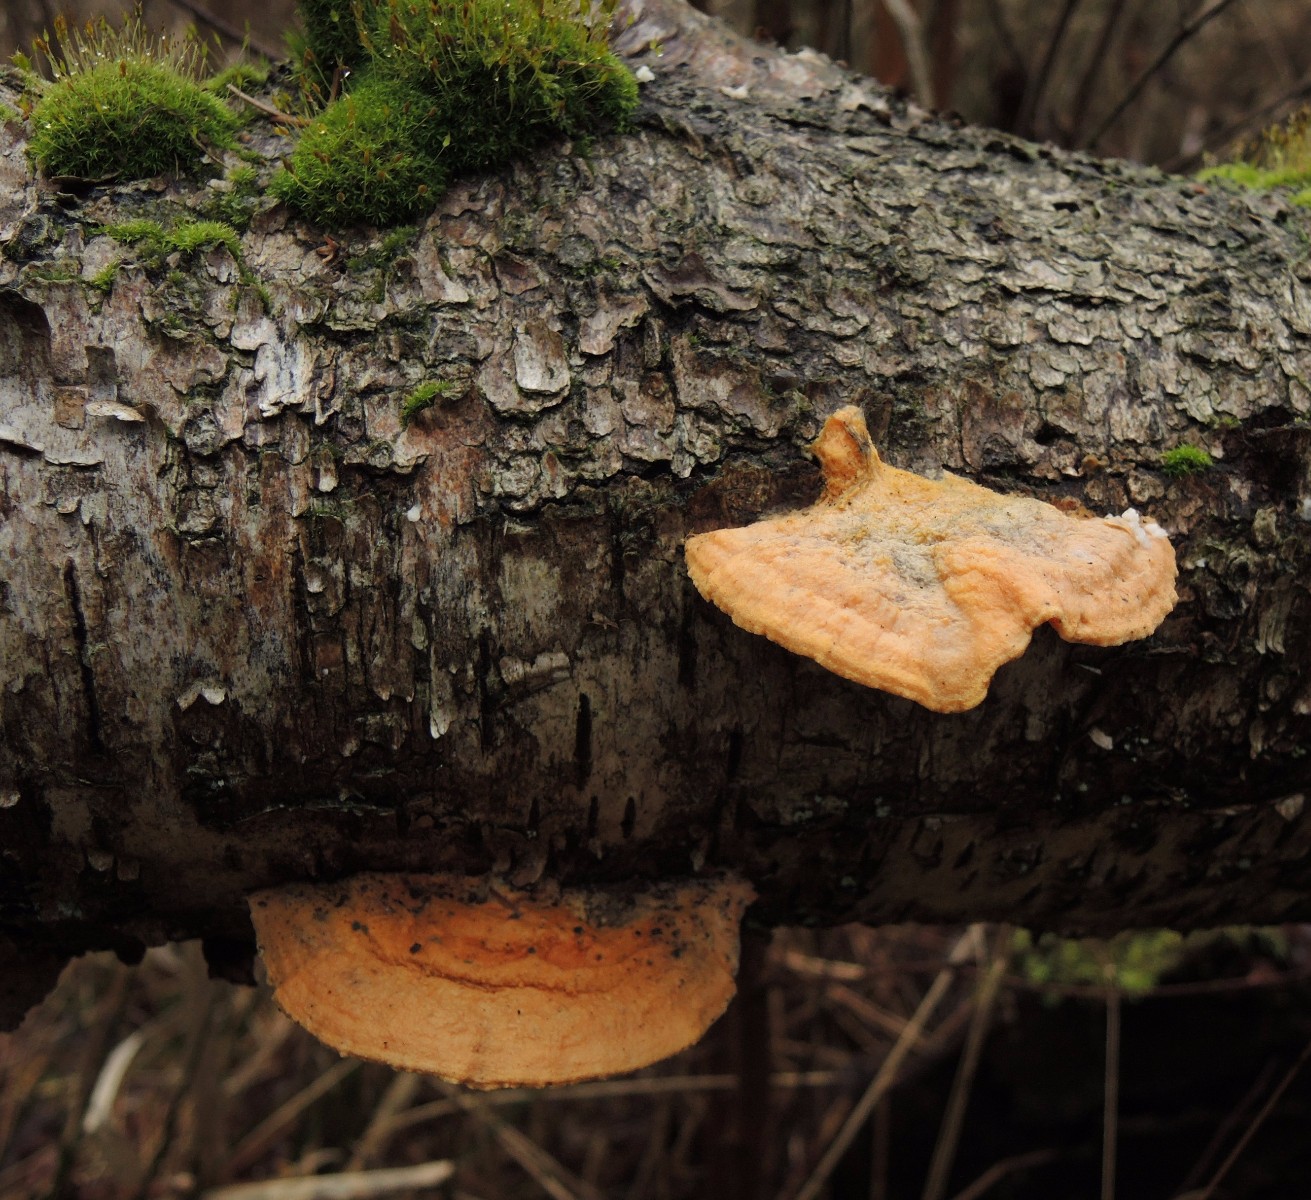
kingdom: Fungi
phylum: Basidiomycota
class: Agaricomycetes
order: Polyporales
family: Polyporaceae
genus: Trametes
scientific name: Trametes cinnabarina
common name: cinnoberporesvamp
